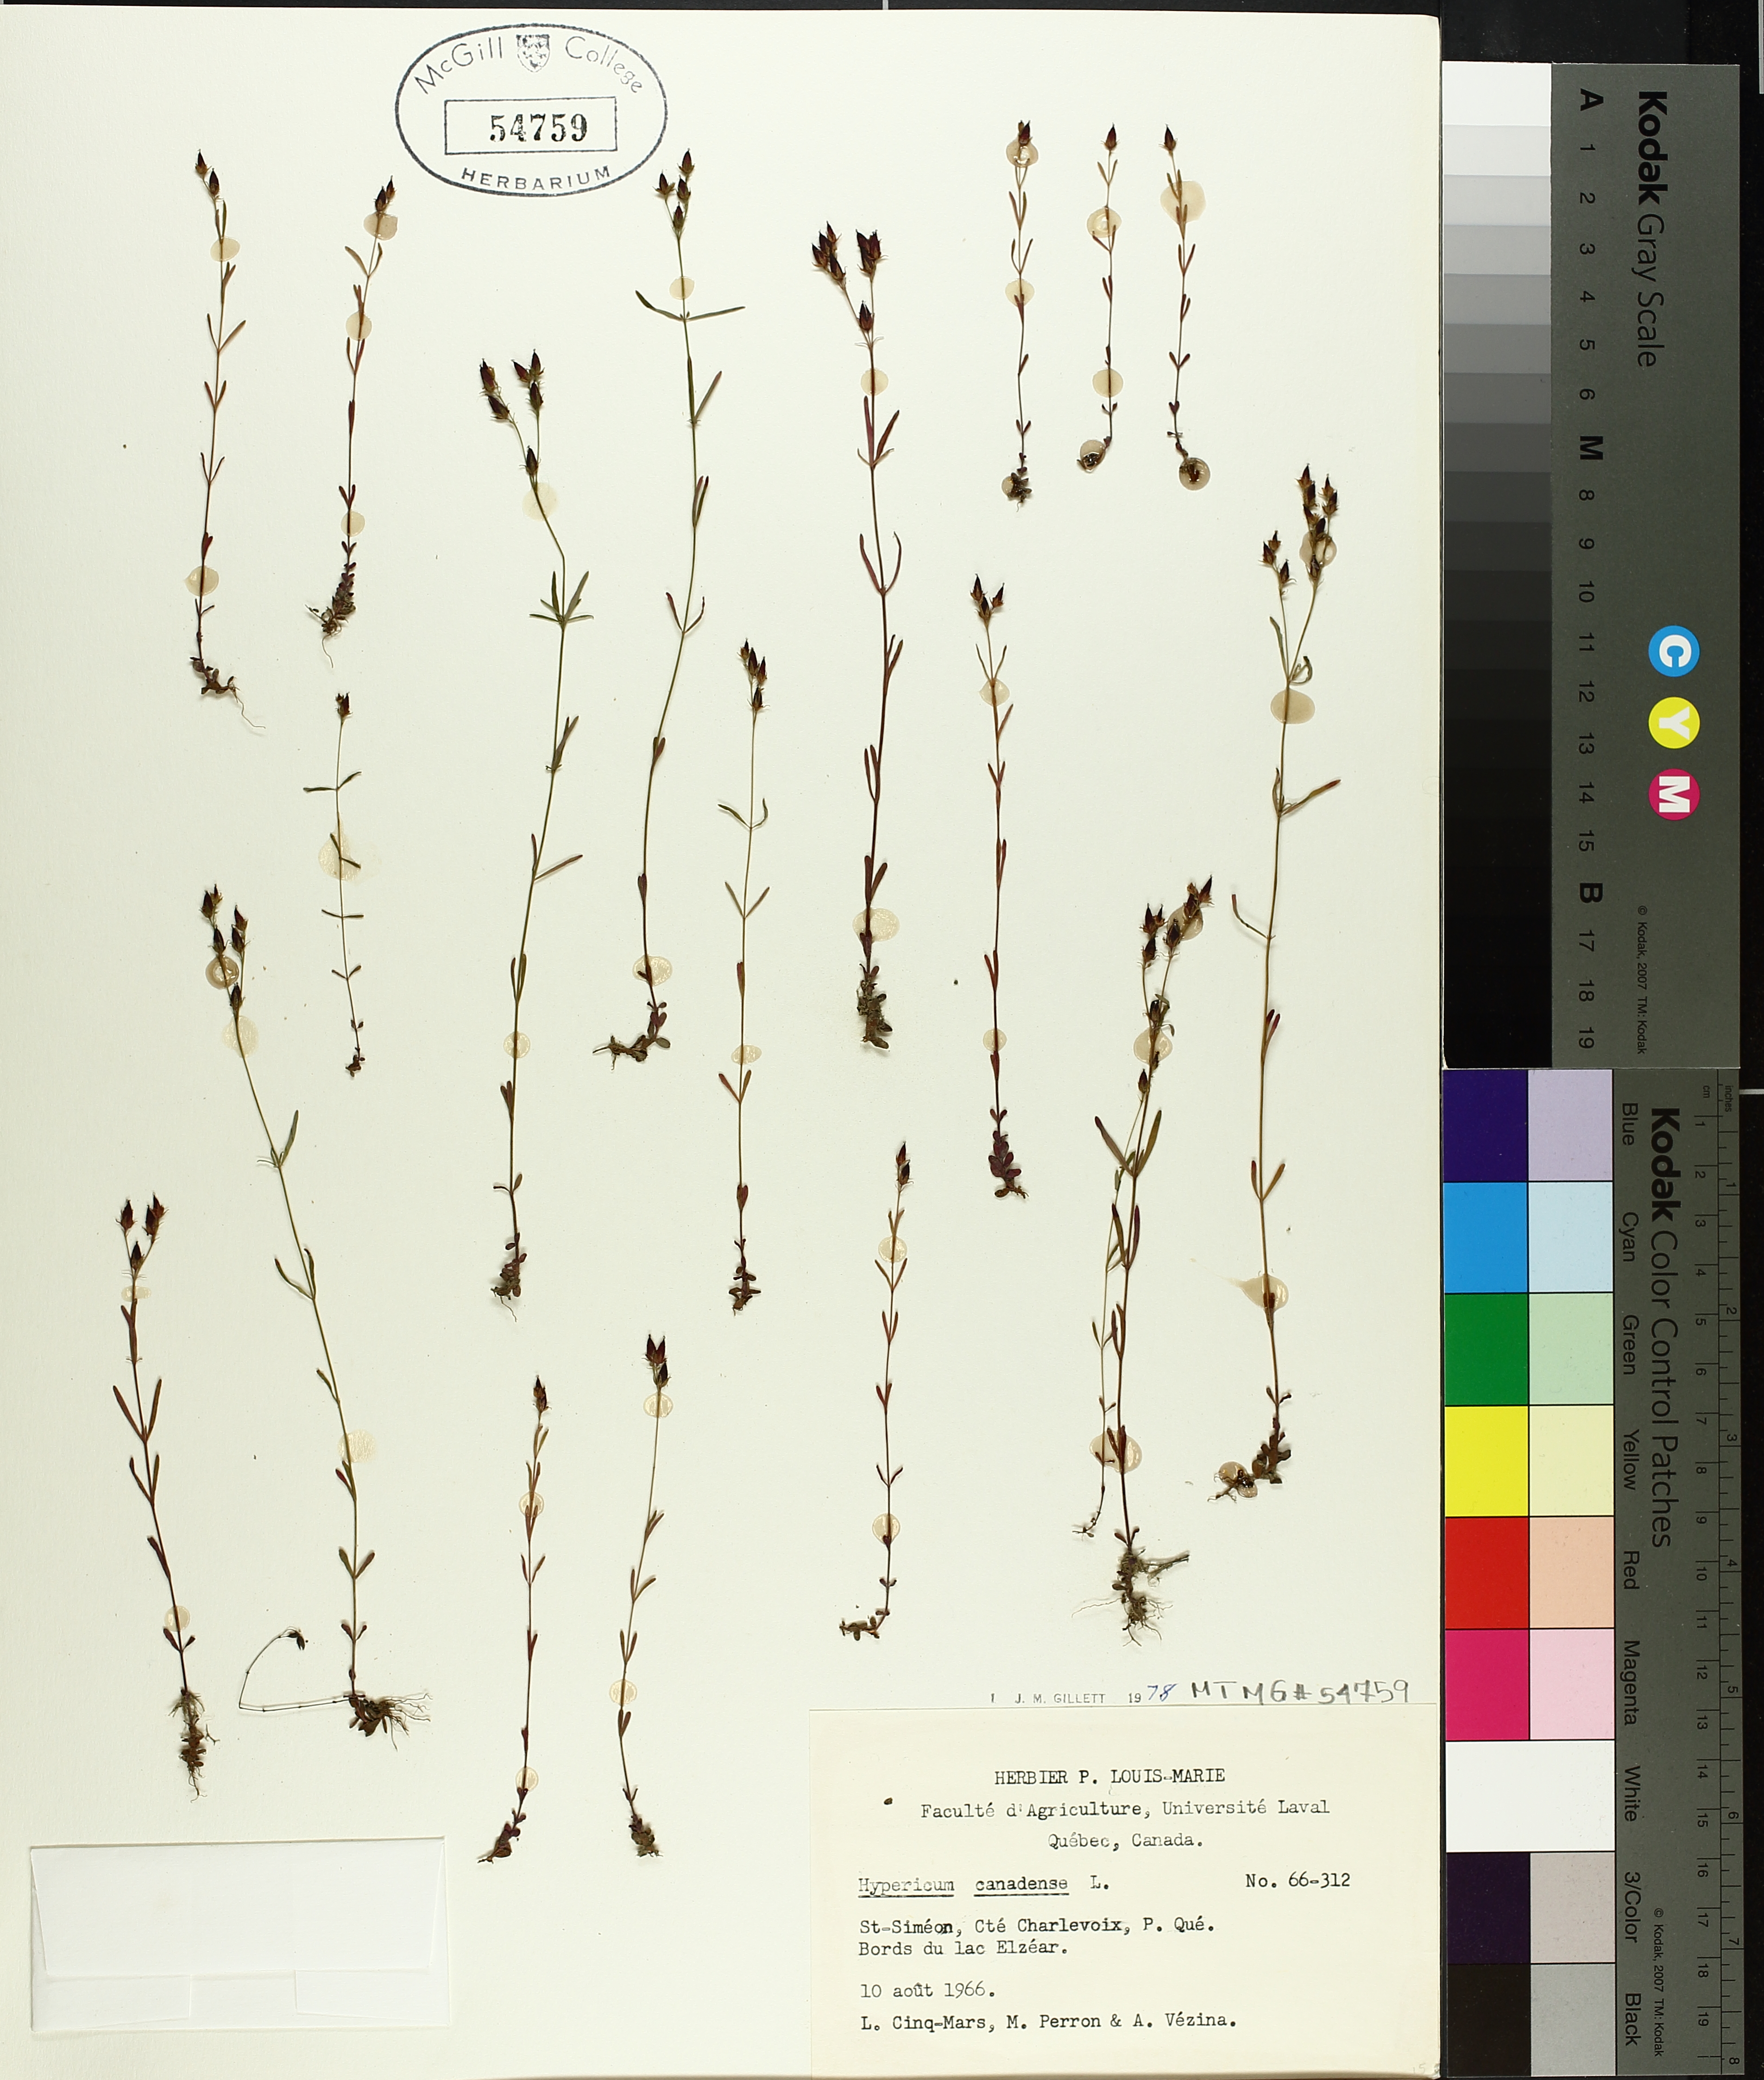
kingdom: Plantae
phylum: Tracheophyta
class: Magnoliopsida
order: Malpighiales
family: Hypericaceae
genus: Hypericum
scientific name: Hypericum canadense
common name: Irish st. john's-wort
